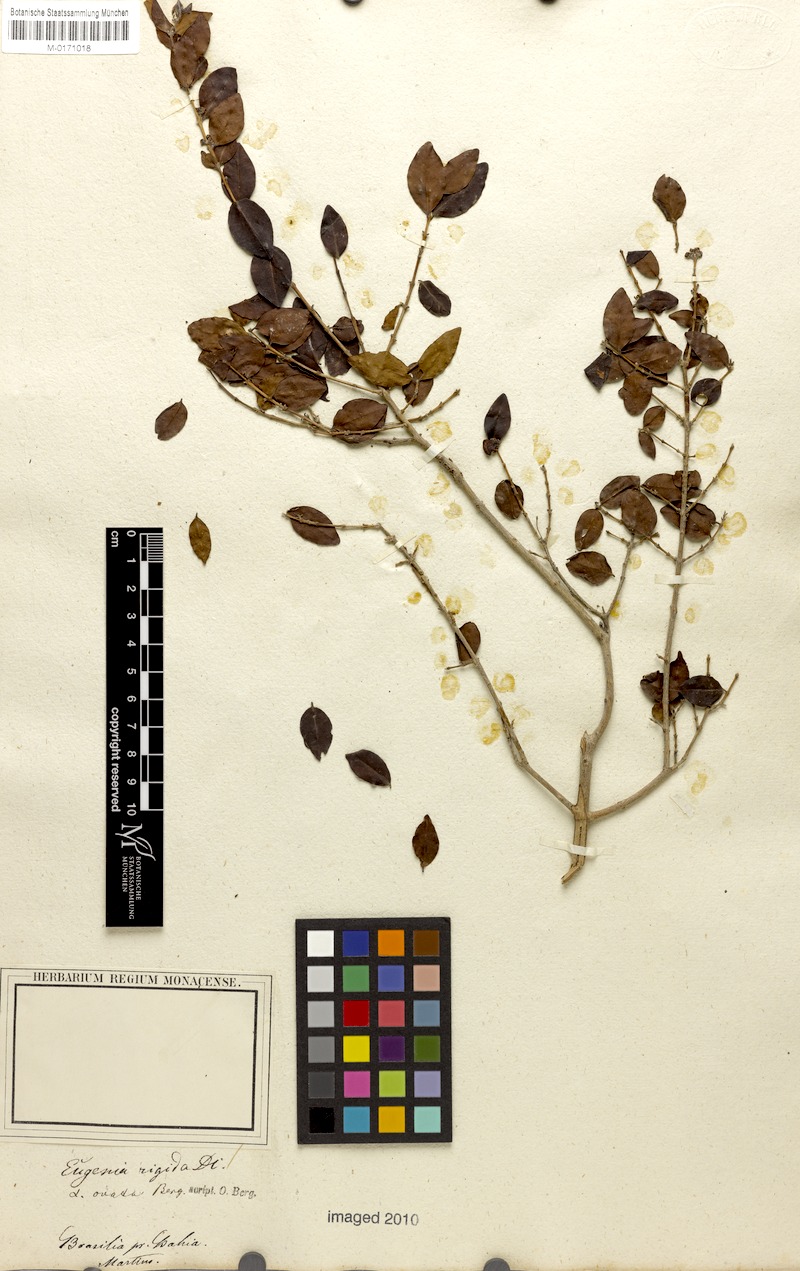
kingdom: Plantae
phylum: Tracheophyta
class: Magnoliopsida
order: Myrtales
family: Myrtaceae
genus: Eugenia
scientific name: Eugenia rigida
